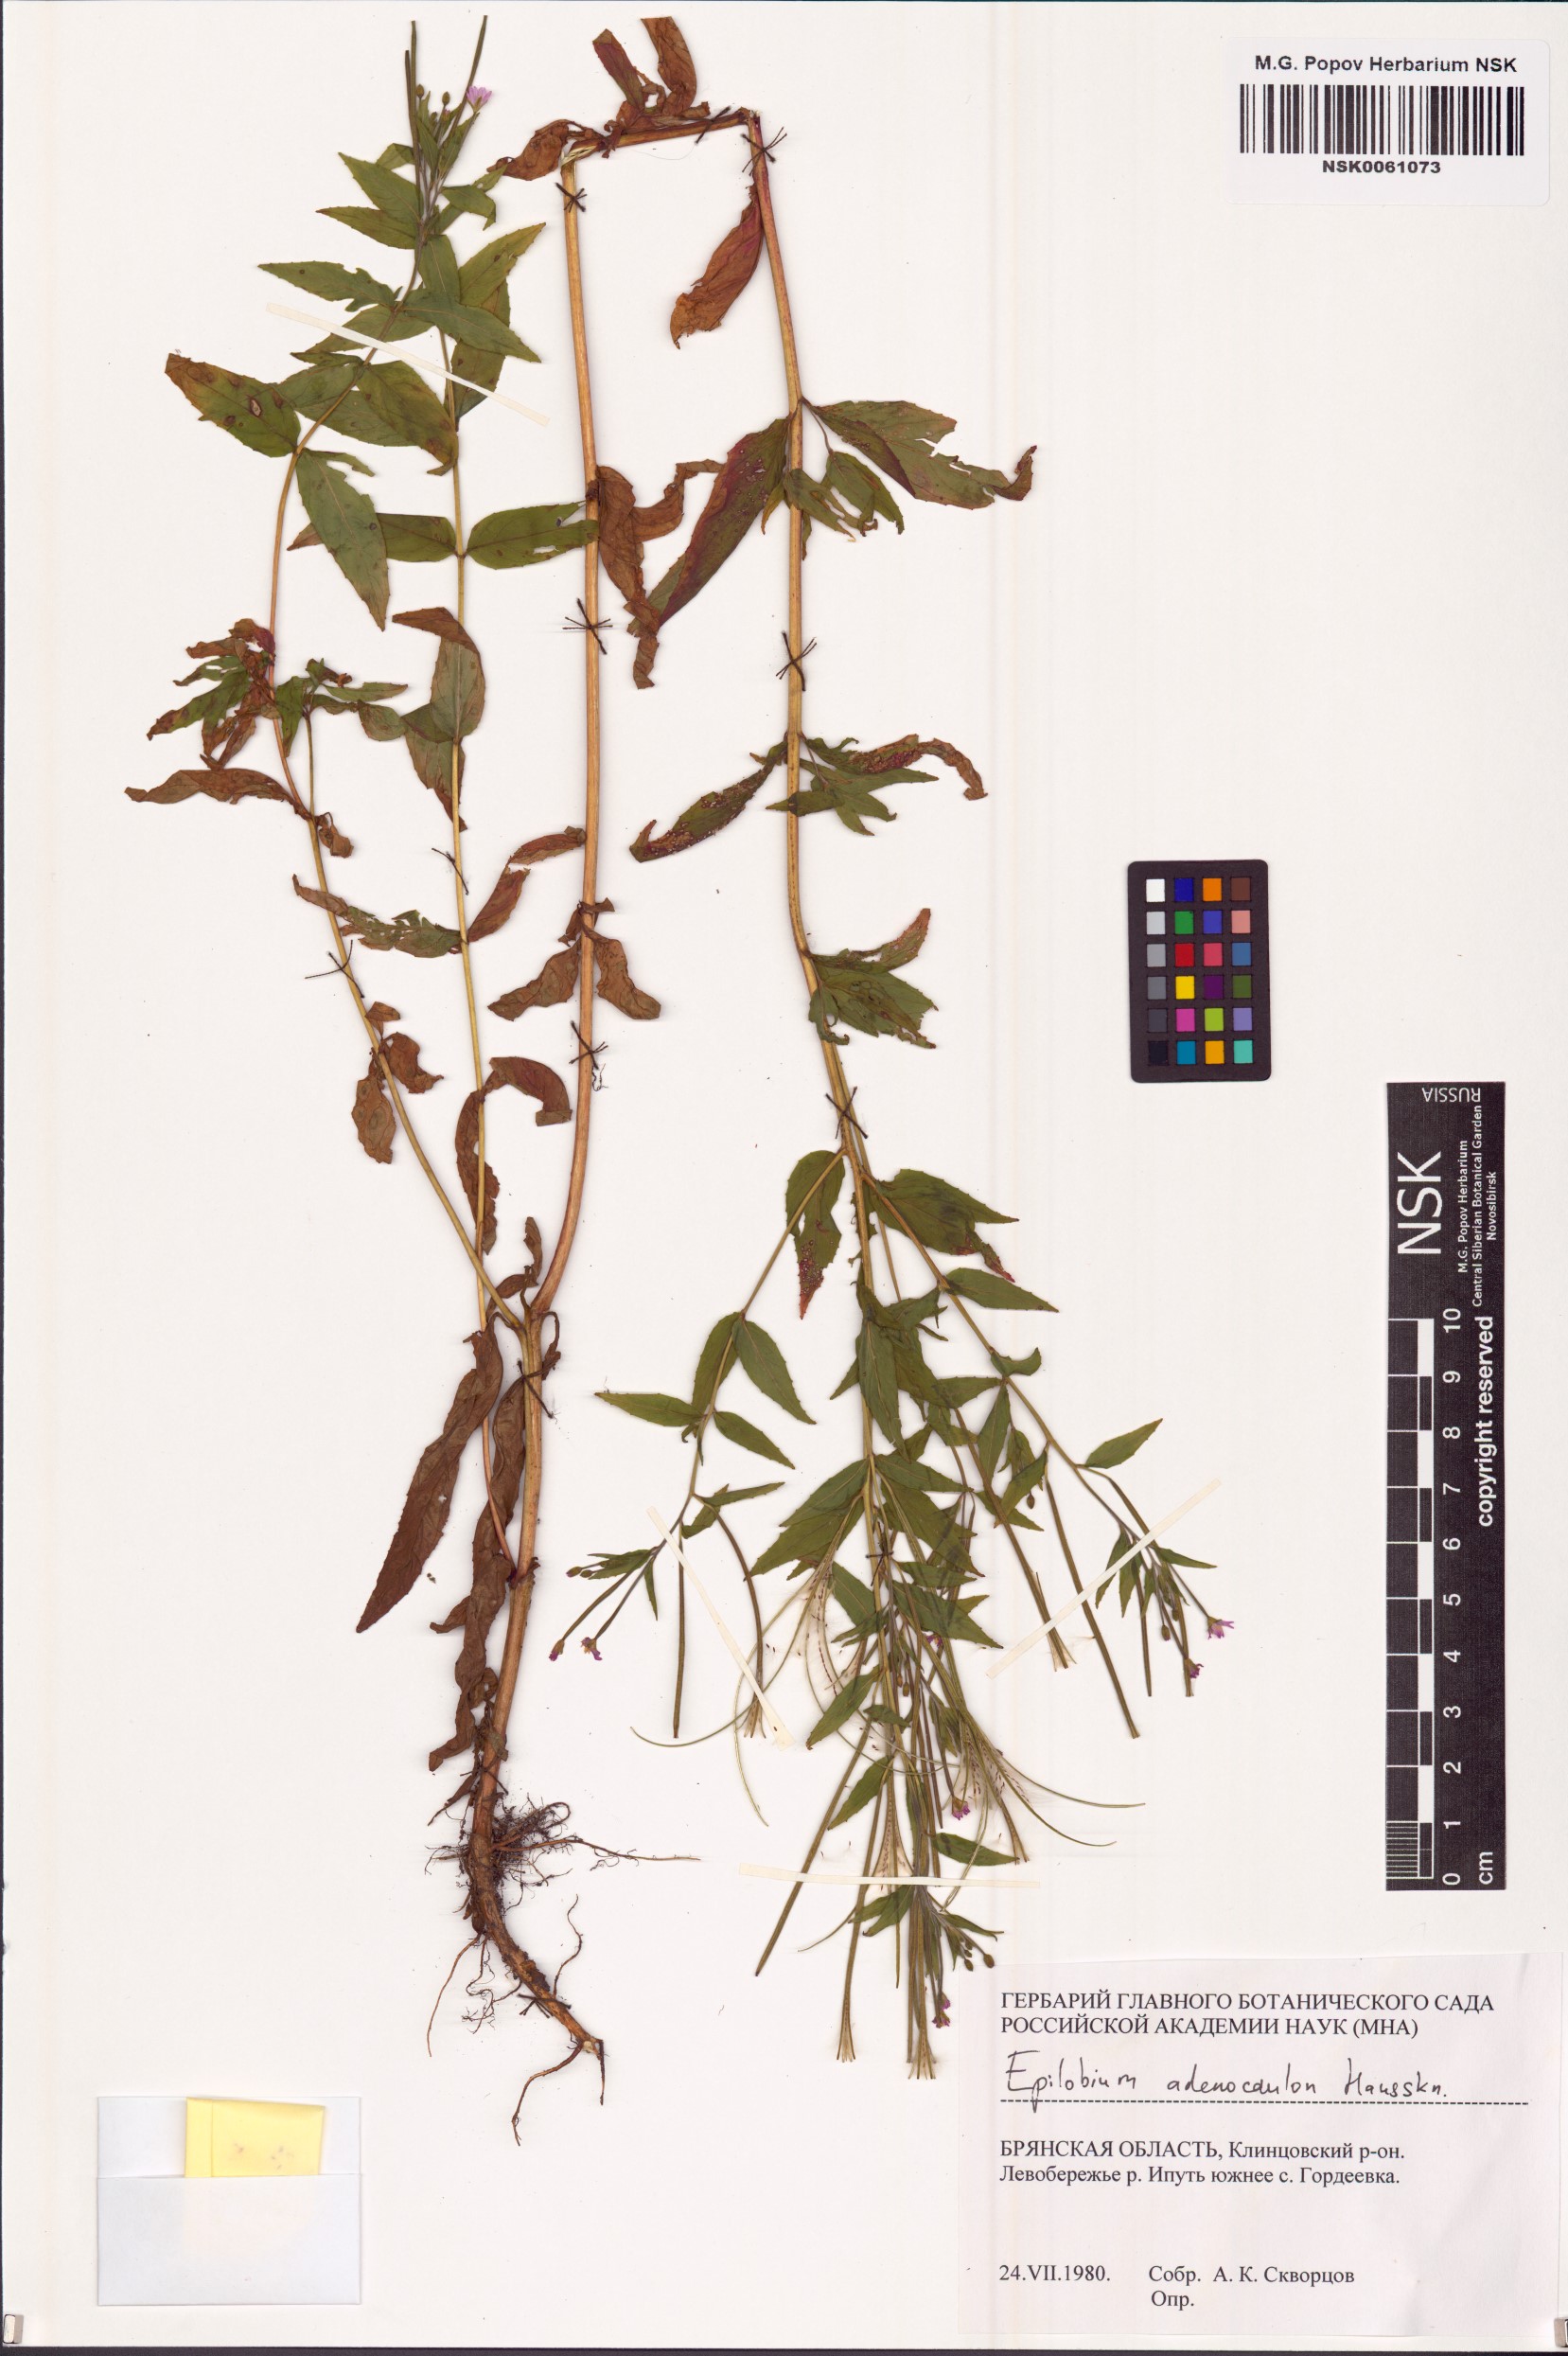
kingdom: Plantae
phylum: Tracheophyta
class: Magnoliopsida
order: Myrtales
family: Onagraceae
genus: Epilobium
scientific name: Epilobium ciliatum
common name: American willowherb
